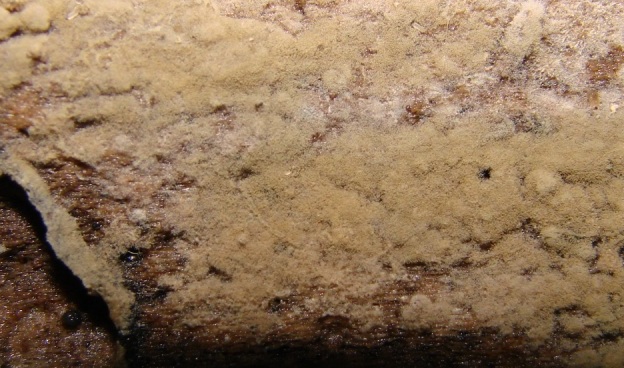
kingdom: Fungi
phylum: Basidiomycota
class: Agaricomycetes
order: Cantharellales
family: Botryobasidiaceae
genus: Botryobasidium
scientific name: Botryobasidium conspersum
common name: olivengrå spindhinde
